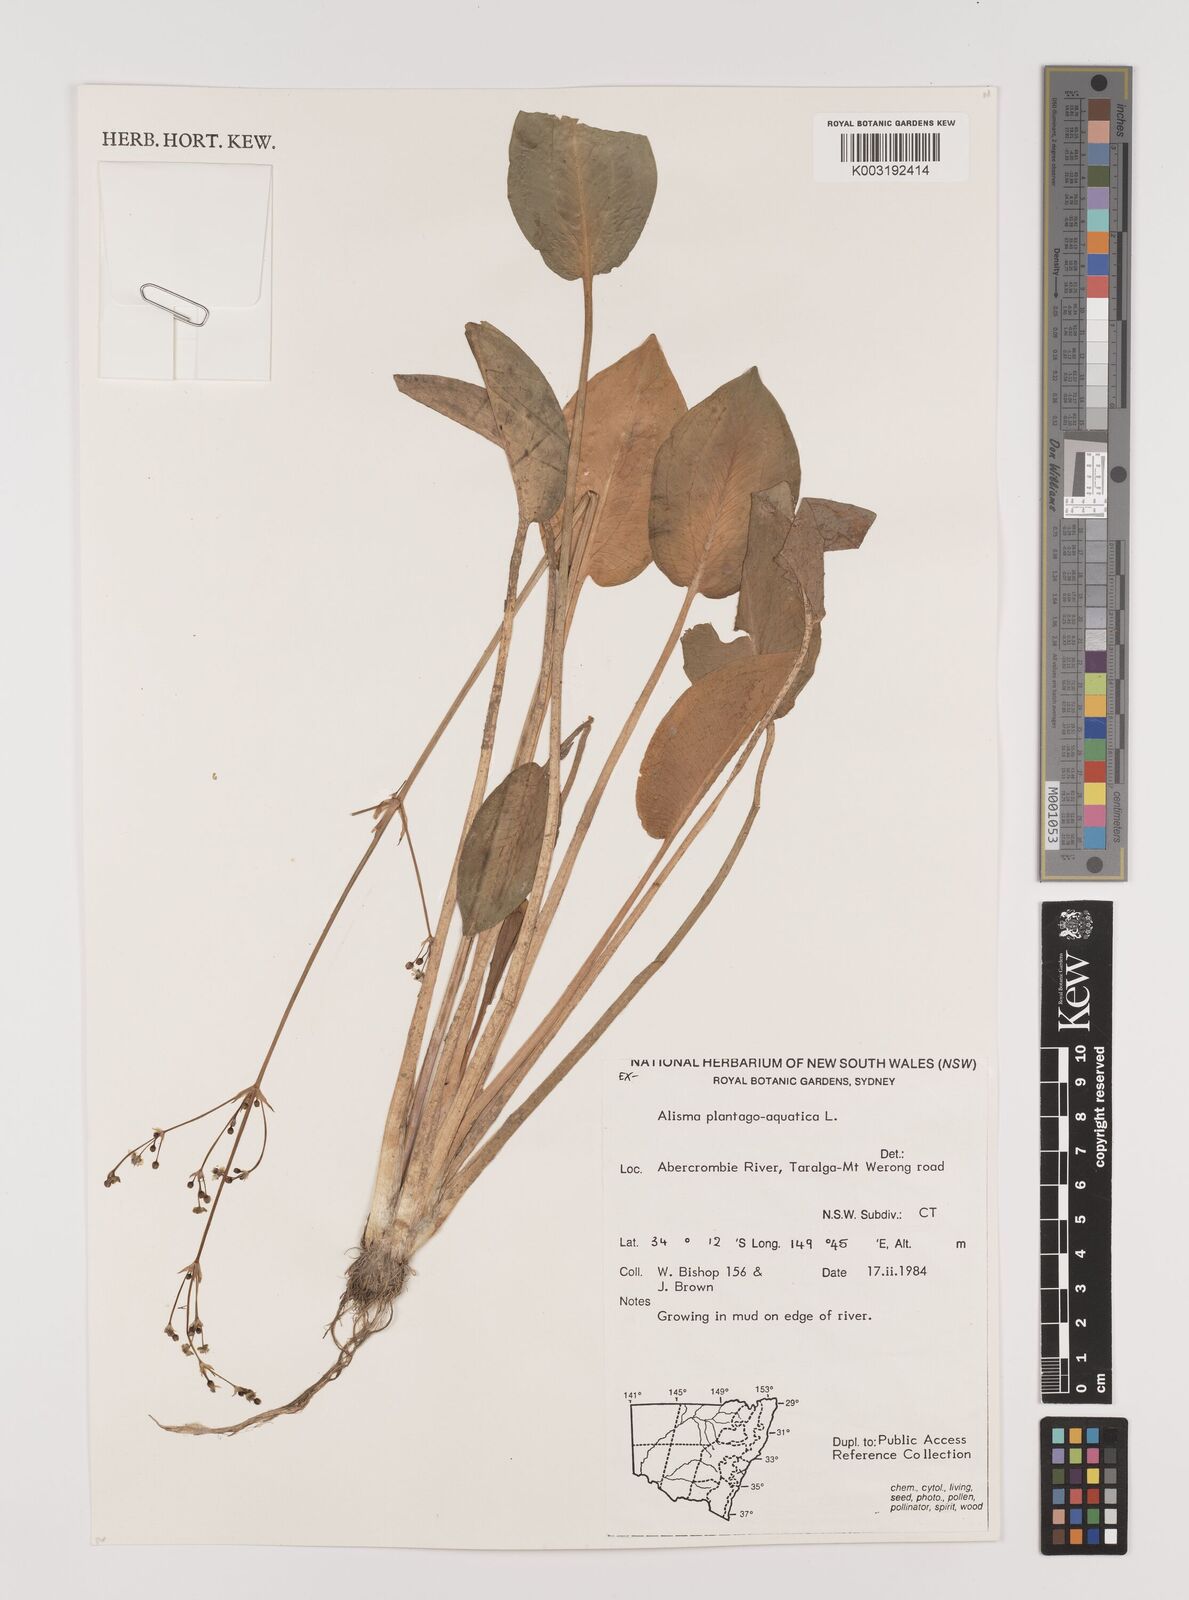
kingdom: Plantae
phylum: Tracheophyta
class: Liliopsida
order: Alismatales
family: Alismataceae
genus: Alisma
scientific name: Alisma plantago-aquatica
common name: Water-plantain
